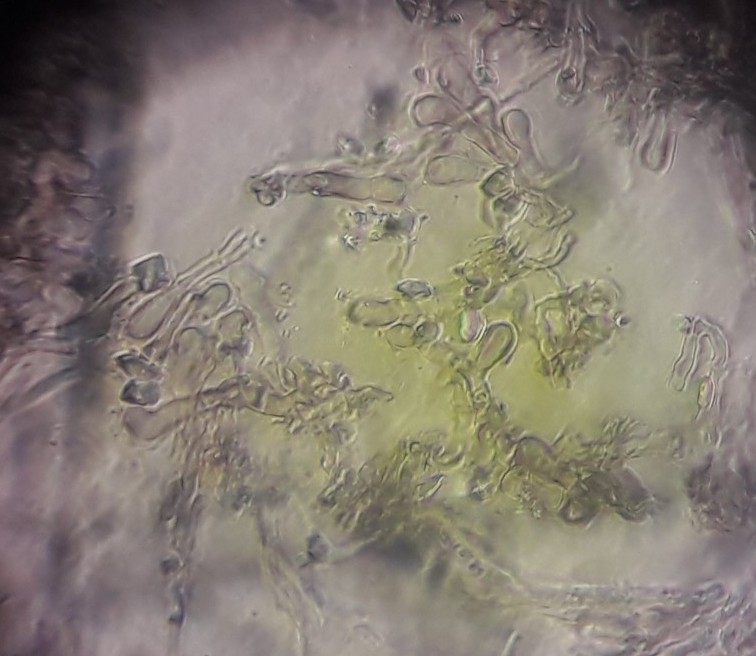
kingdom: Fungi
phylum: Ascomycota
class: Leotiomycetes
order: Helotiales
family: Sclerotiniaceae
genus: Sclerencoelia
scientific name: Sclerencoelia fascicularis
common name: poppel-læderskive
